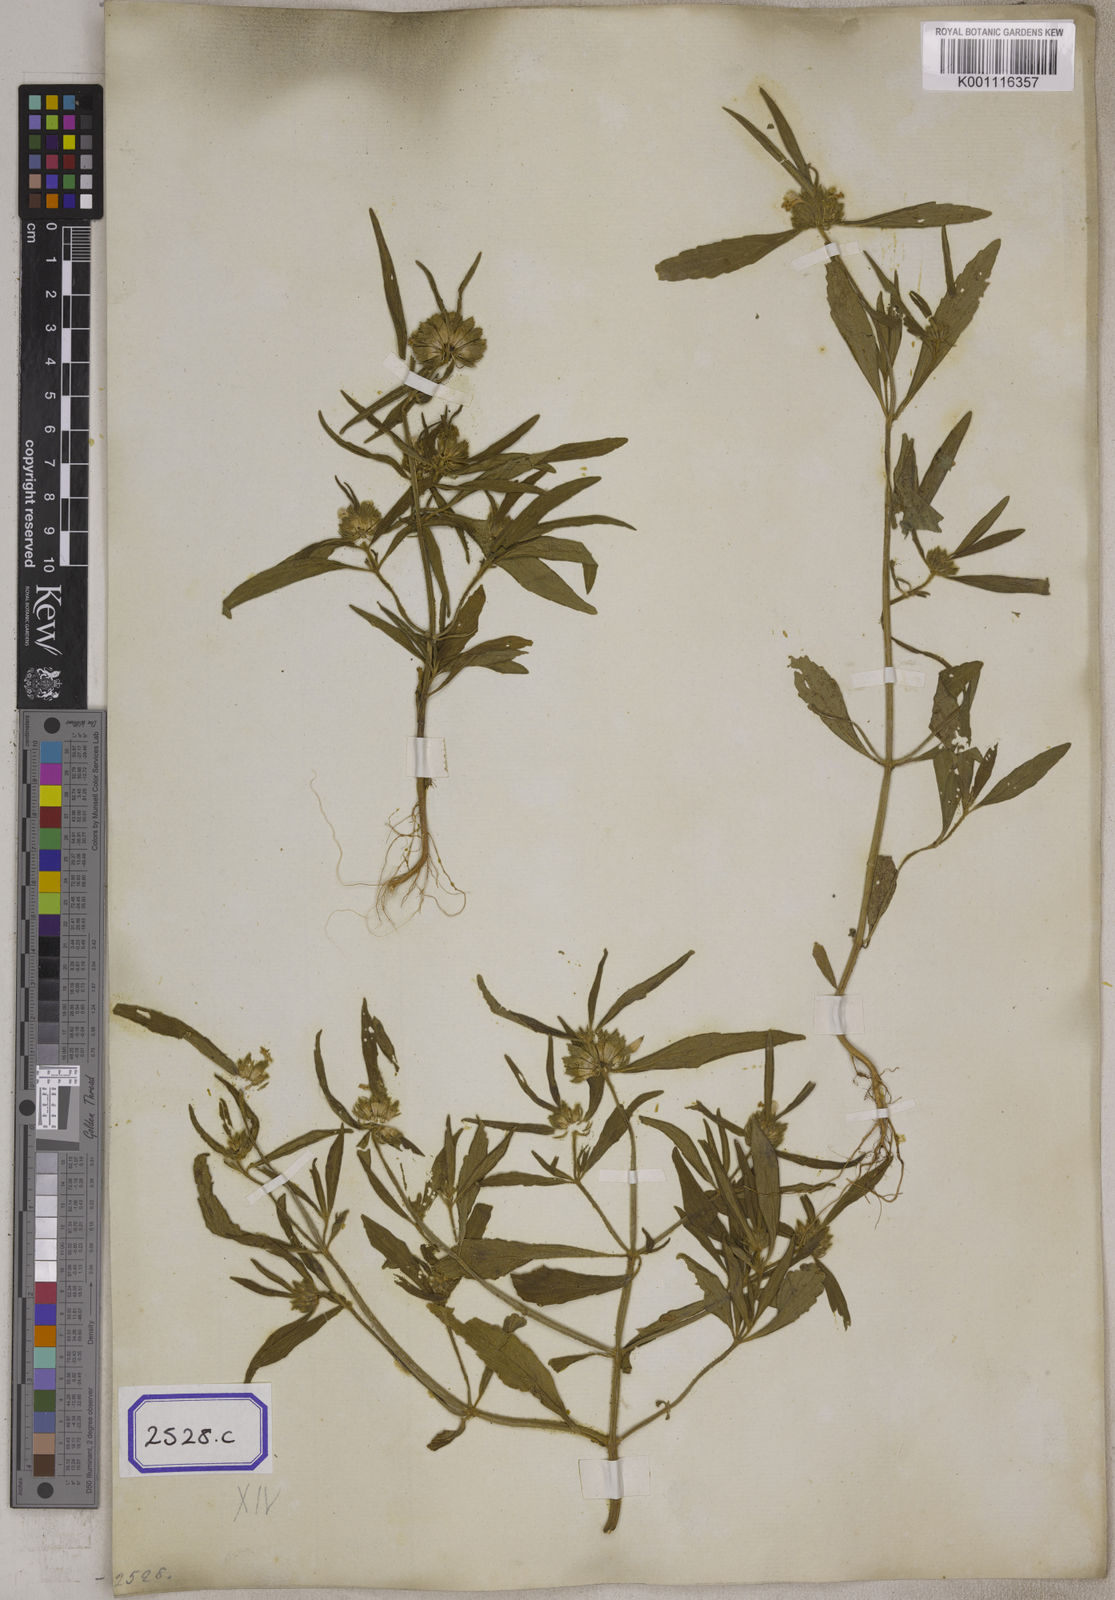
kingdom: Plantae
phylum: Tracheophyta
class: Magnoliopsida
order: Lamiales
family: Lamiaceae
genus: Leucas
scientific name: Leucas aspera
